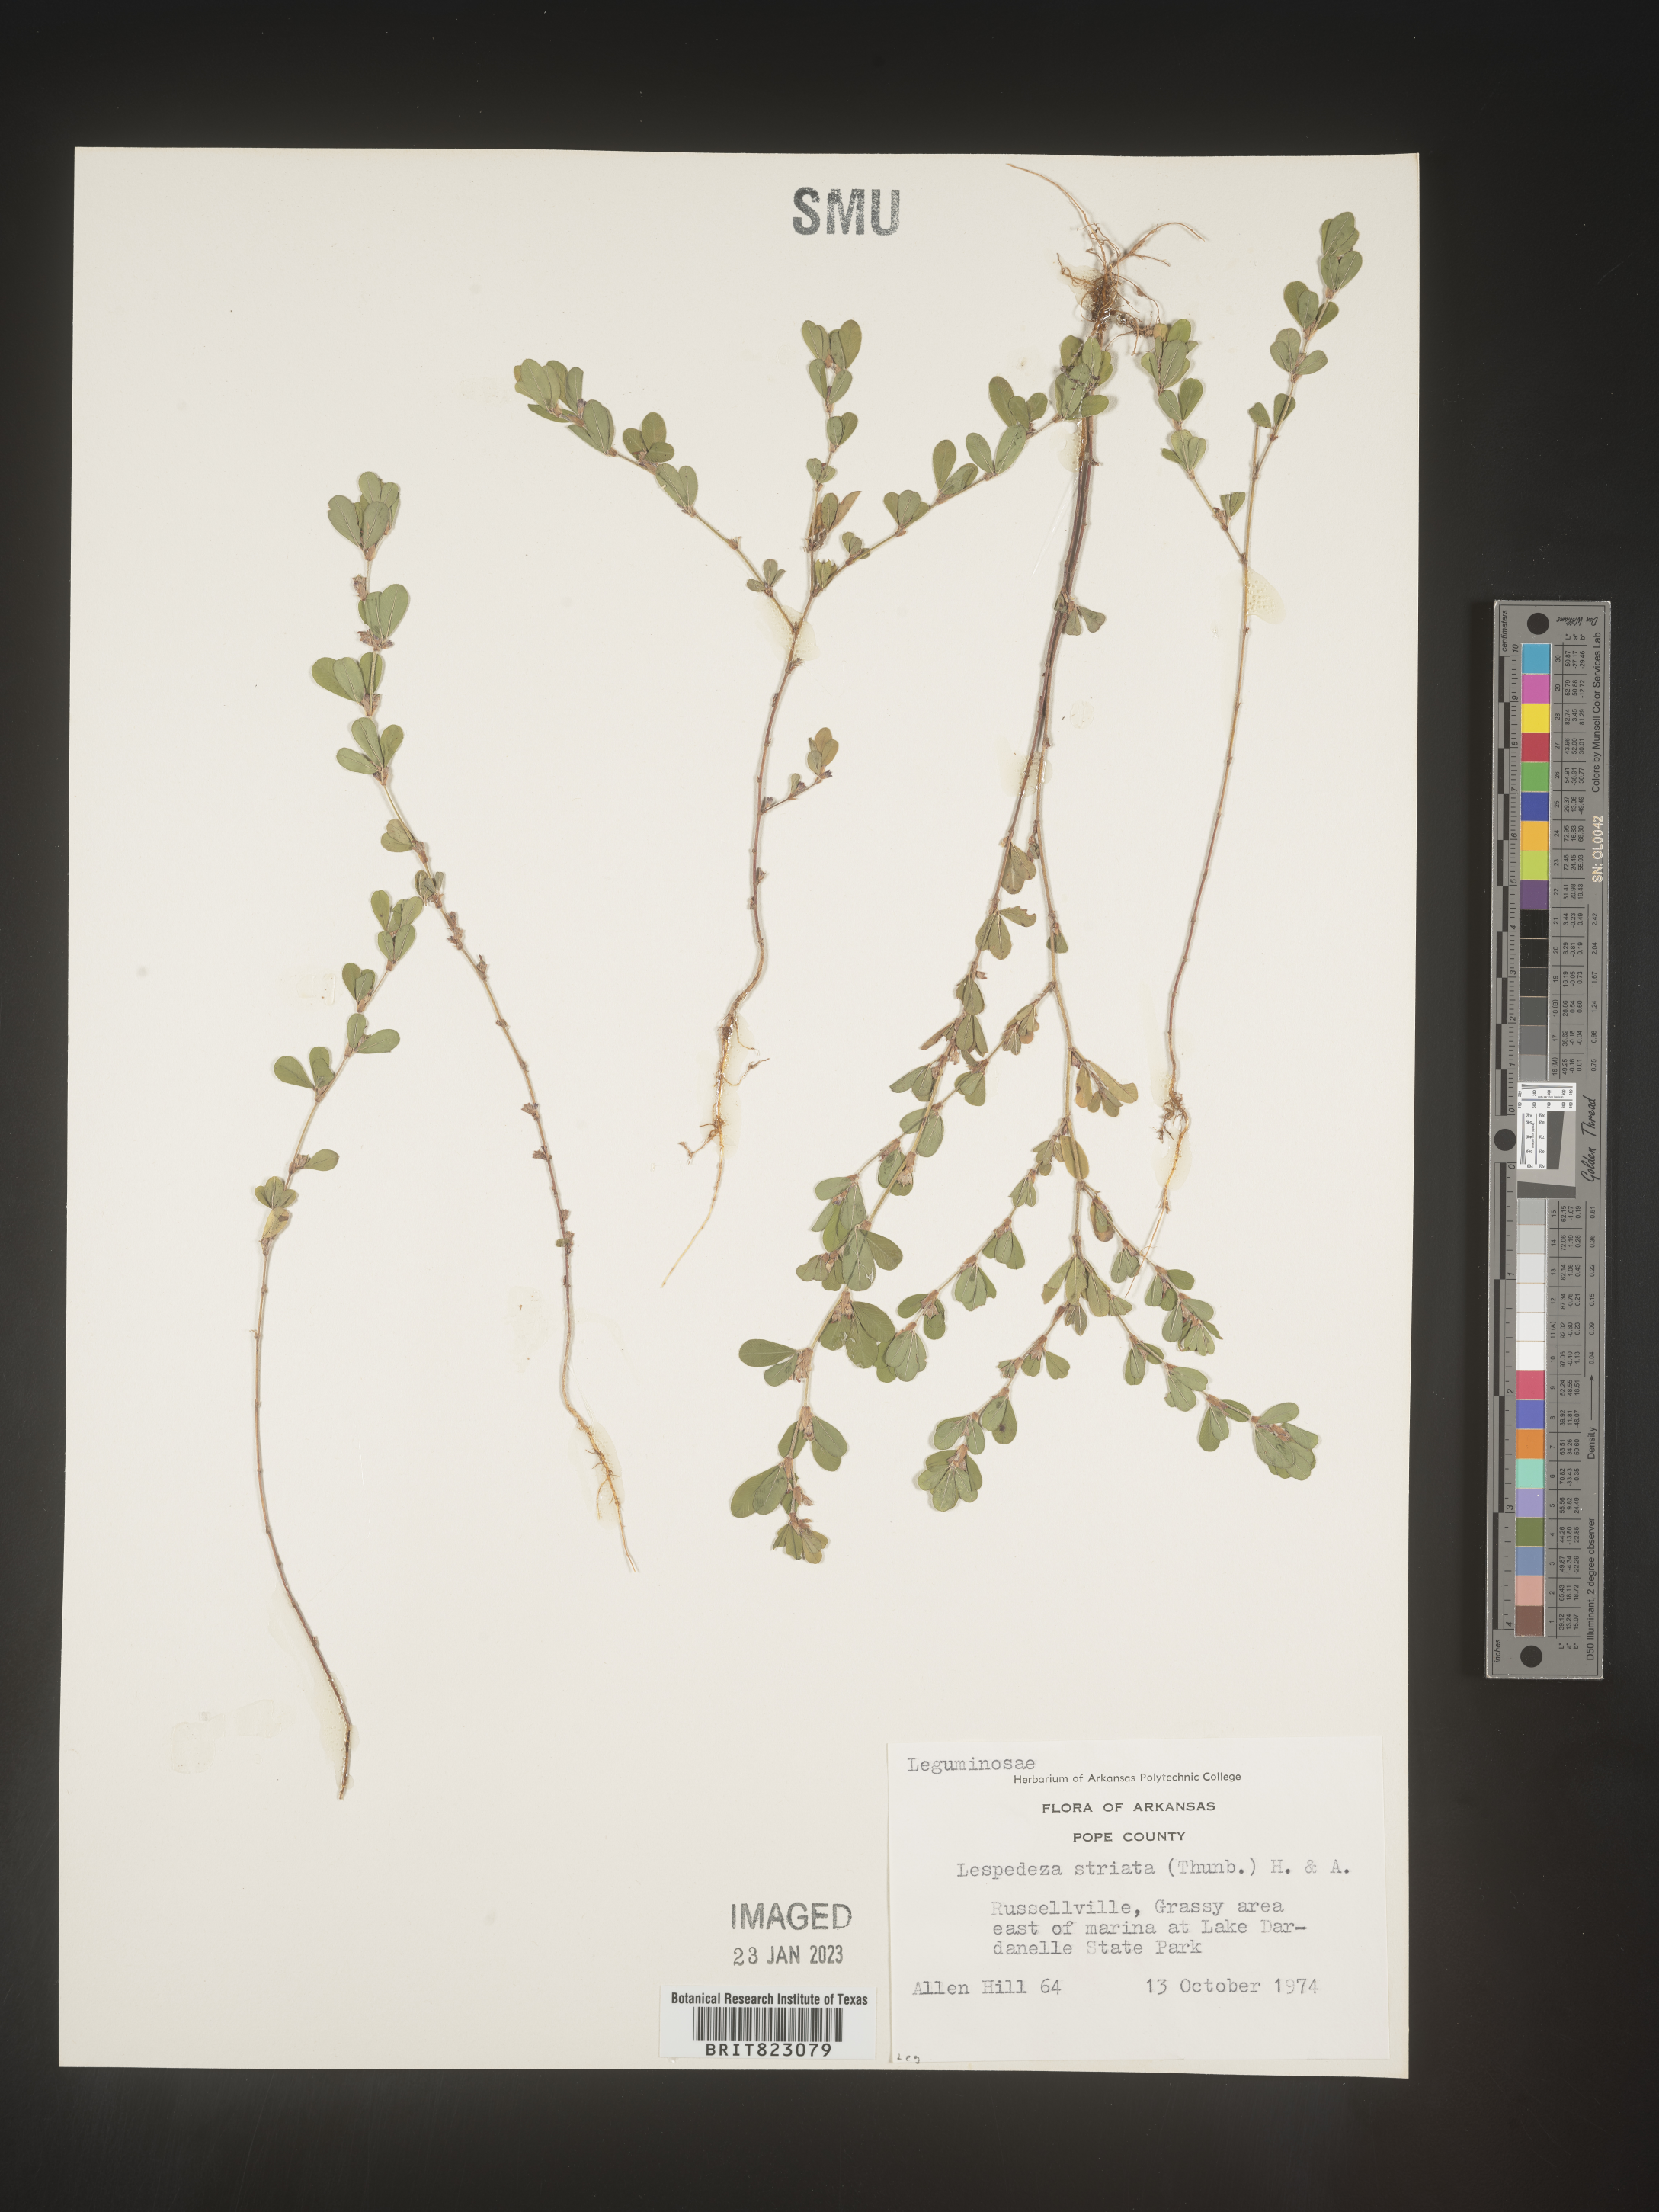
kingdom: Plantae
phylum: Tracheophyta
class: Magnoliopsida
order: Fabales
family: Fabaceae
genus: Kummerowia
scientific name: Kummerowia striata
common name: Japanese clover
